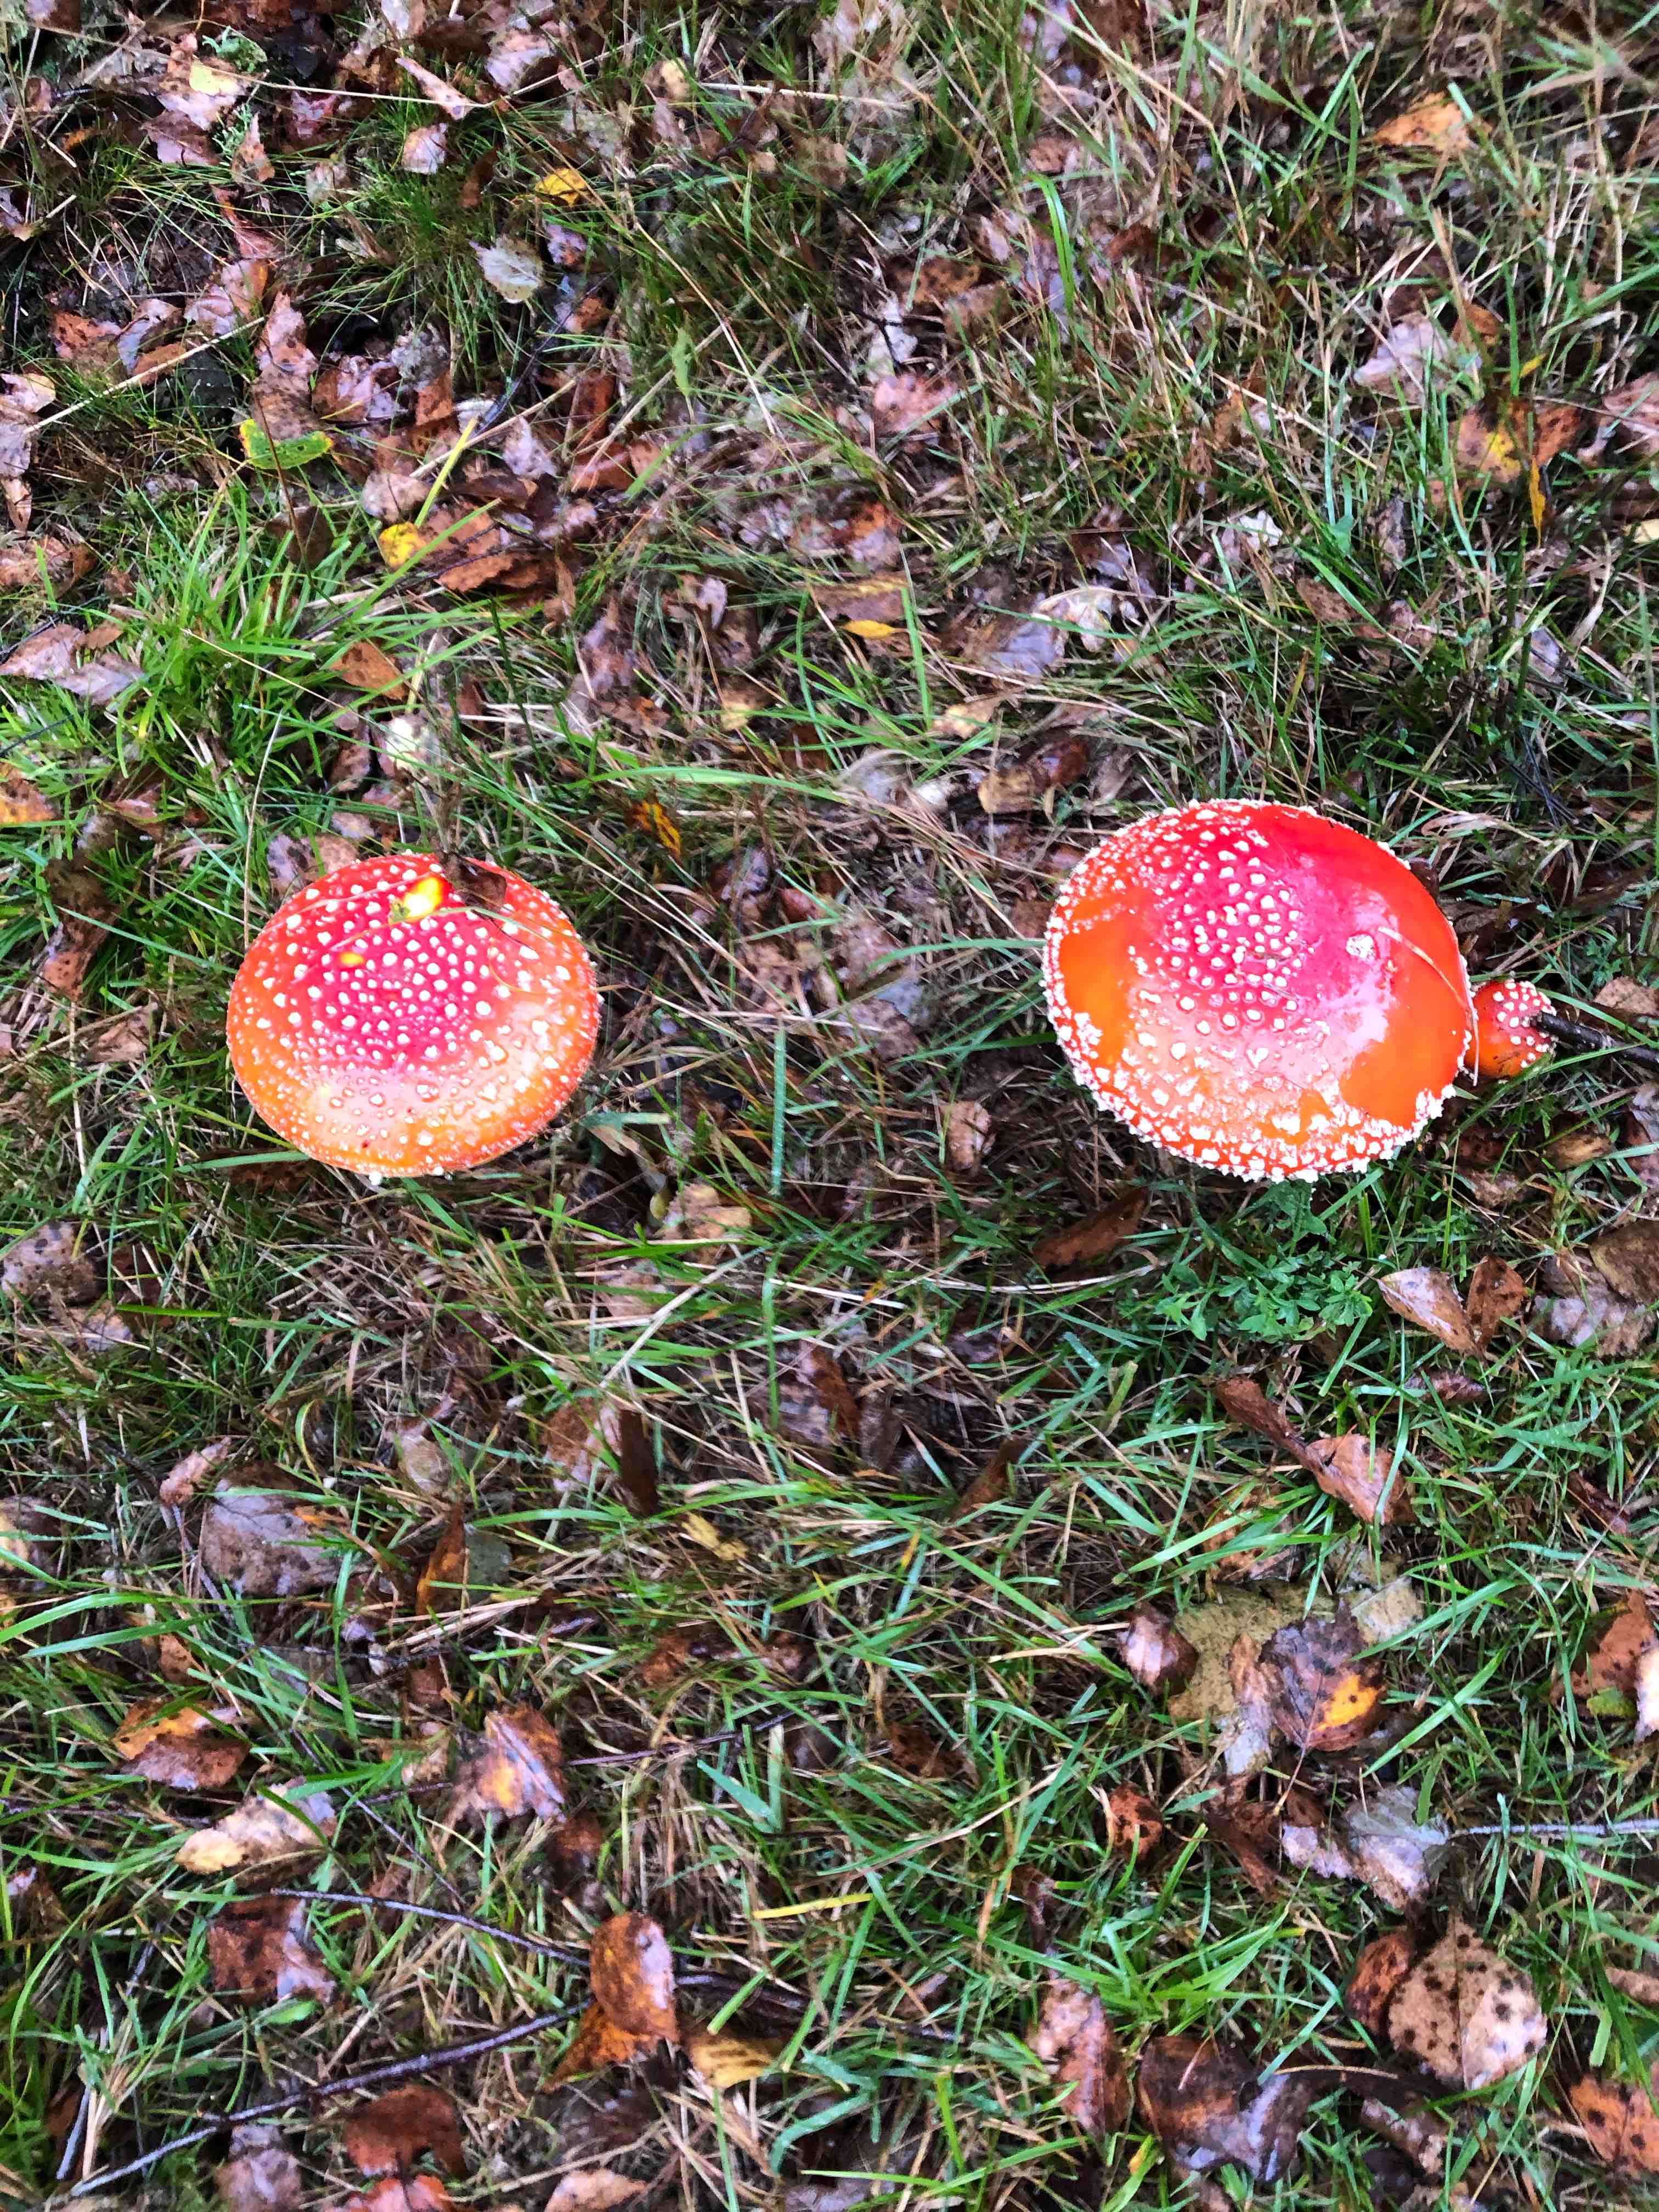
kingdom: Fungi
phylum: Basidiomycota
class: Agaricomycetes
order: Agaricales
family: Amanitaceae
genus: Amanita
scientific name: Amanita muscaria
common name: rød fluesvamp
